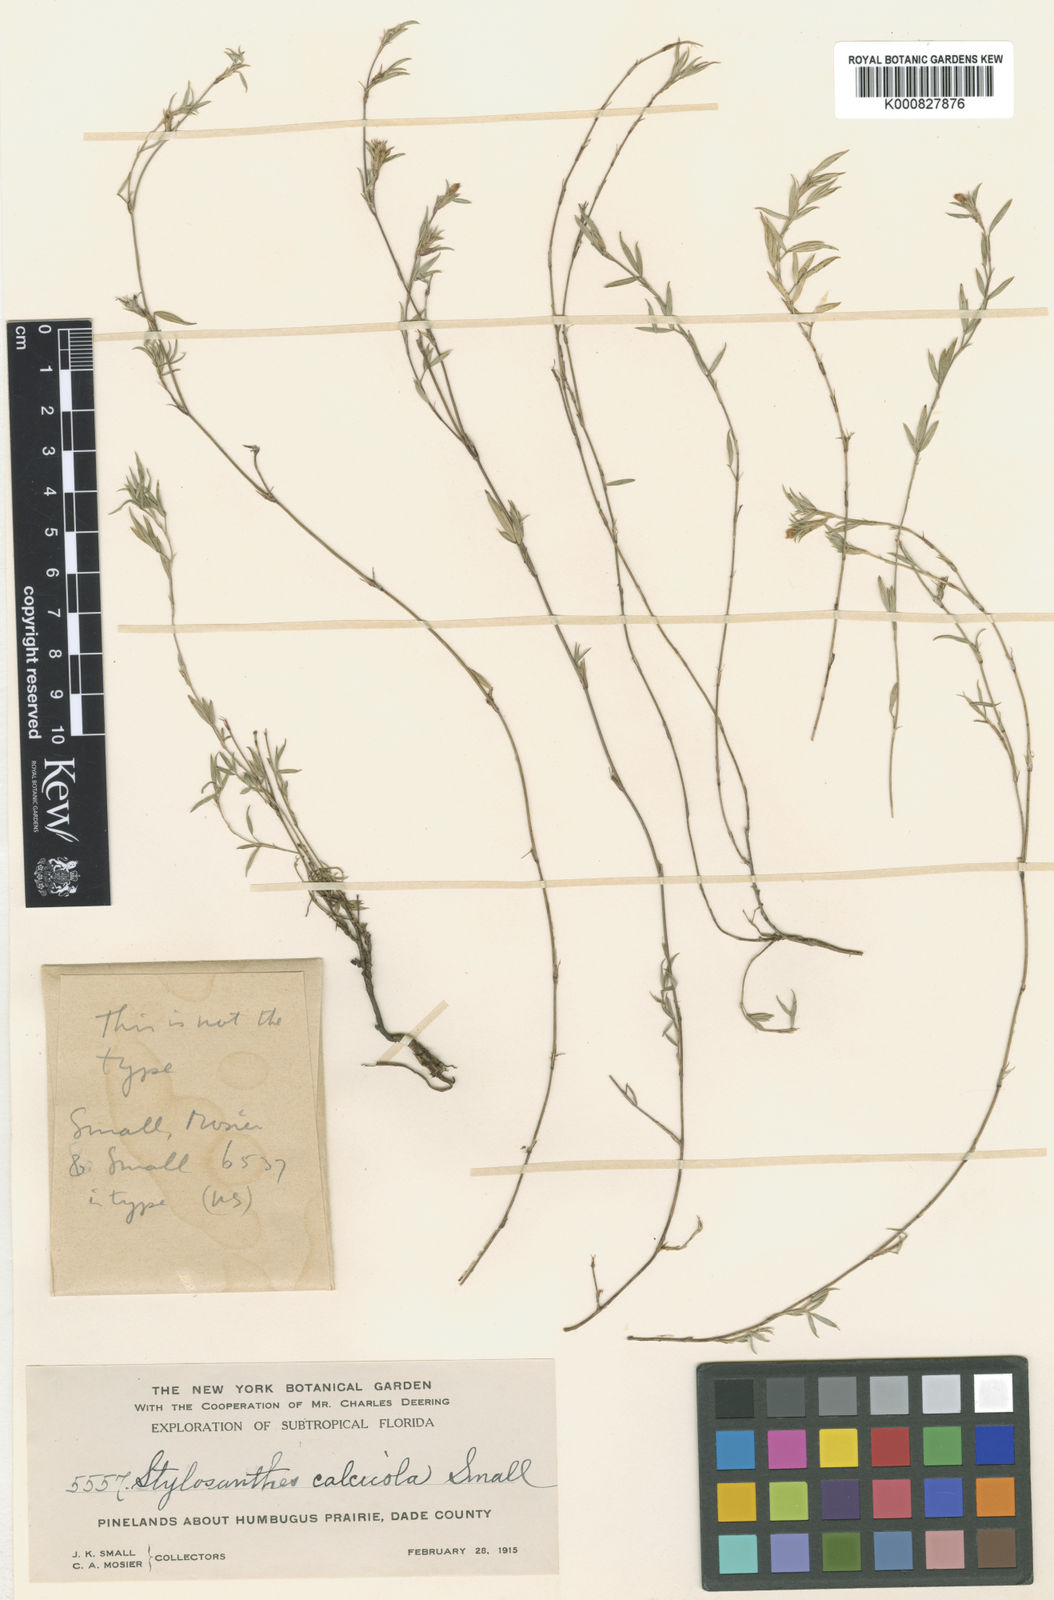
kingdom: Plantae
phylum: Tracheophyta
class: Magnoliopsida
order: Fabales
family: Fabaceae
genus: Stylosanthes
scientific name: Stylosanthes calcicola
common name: Everglades key pencil-flower
